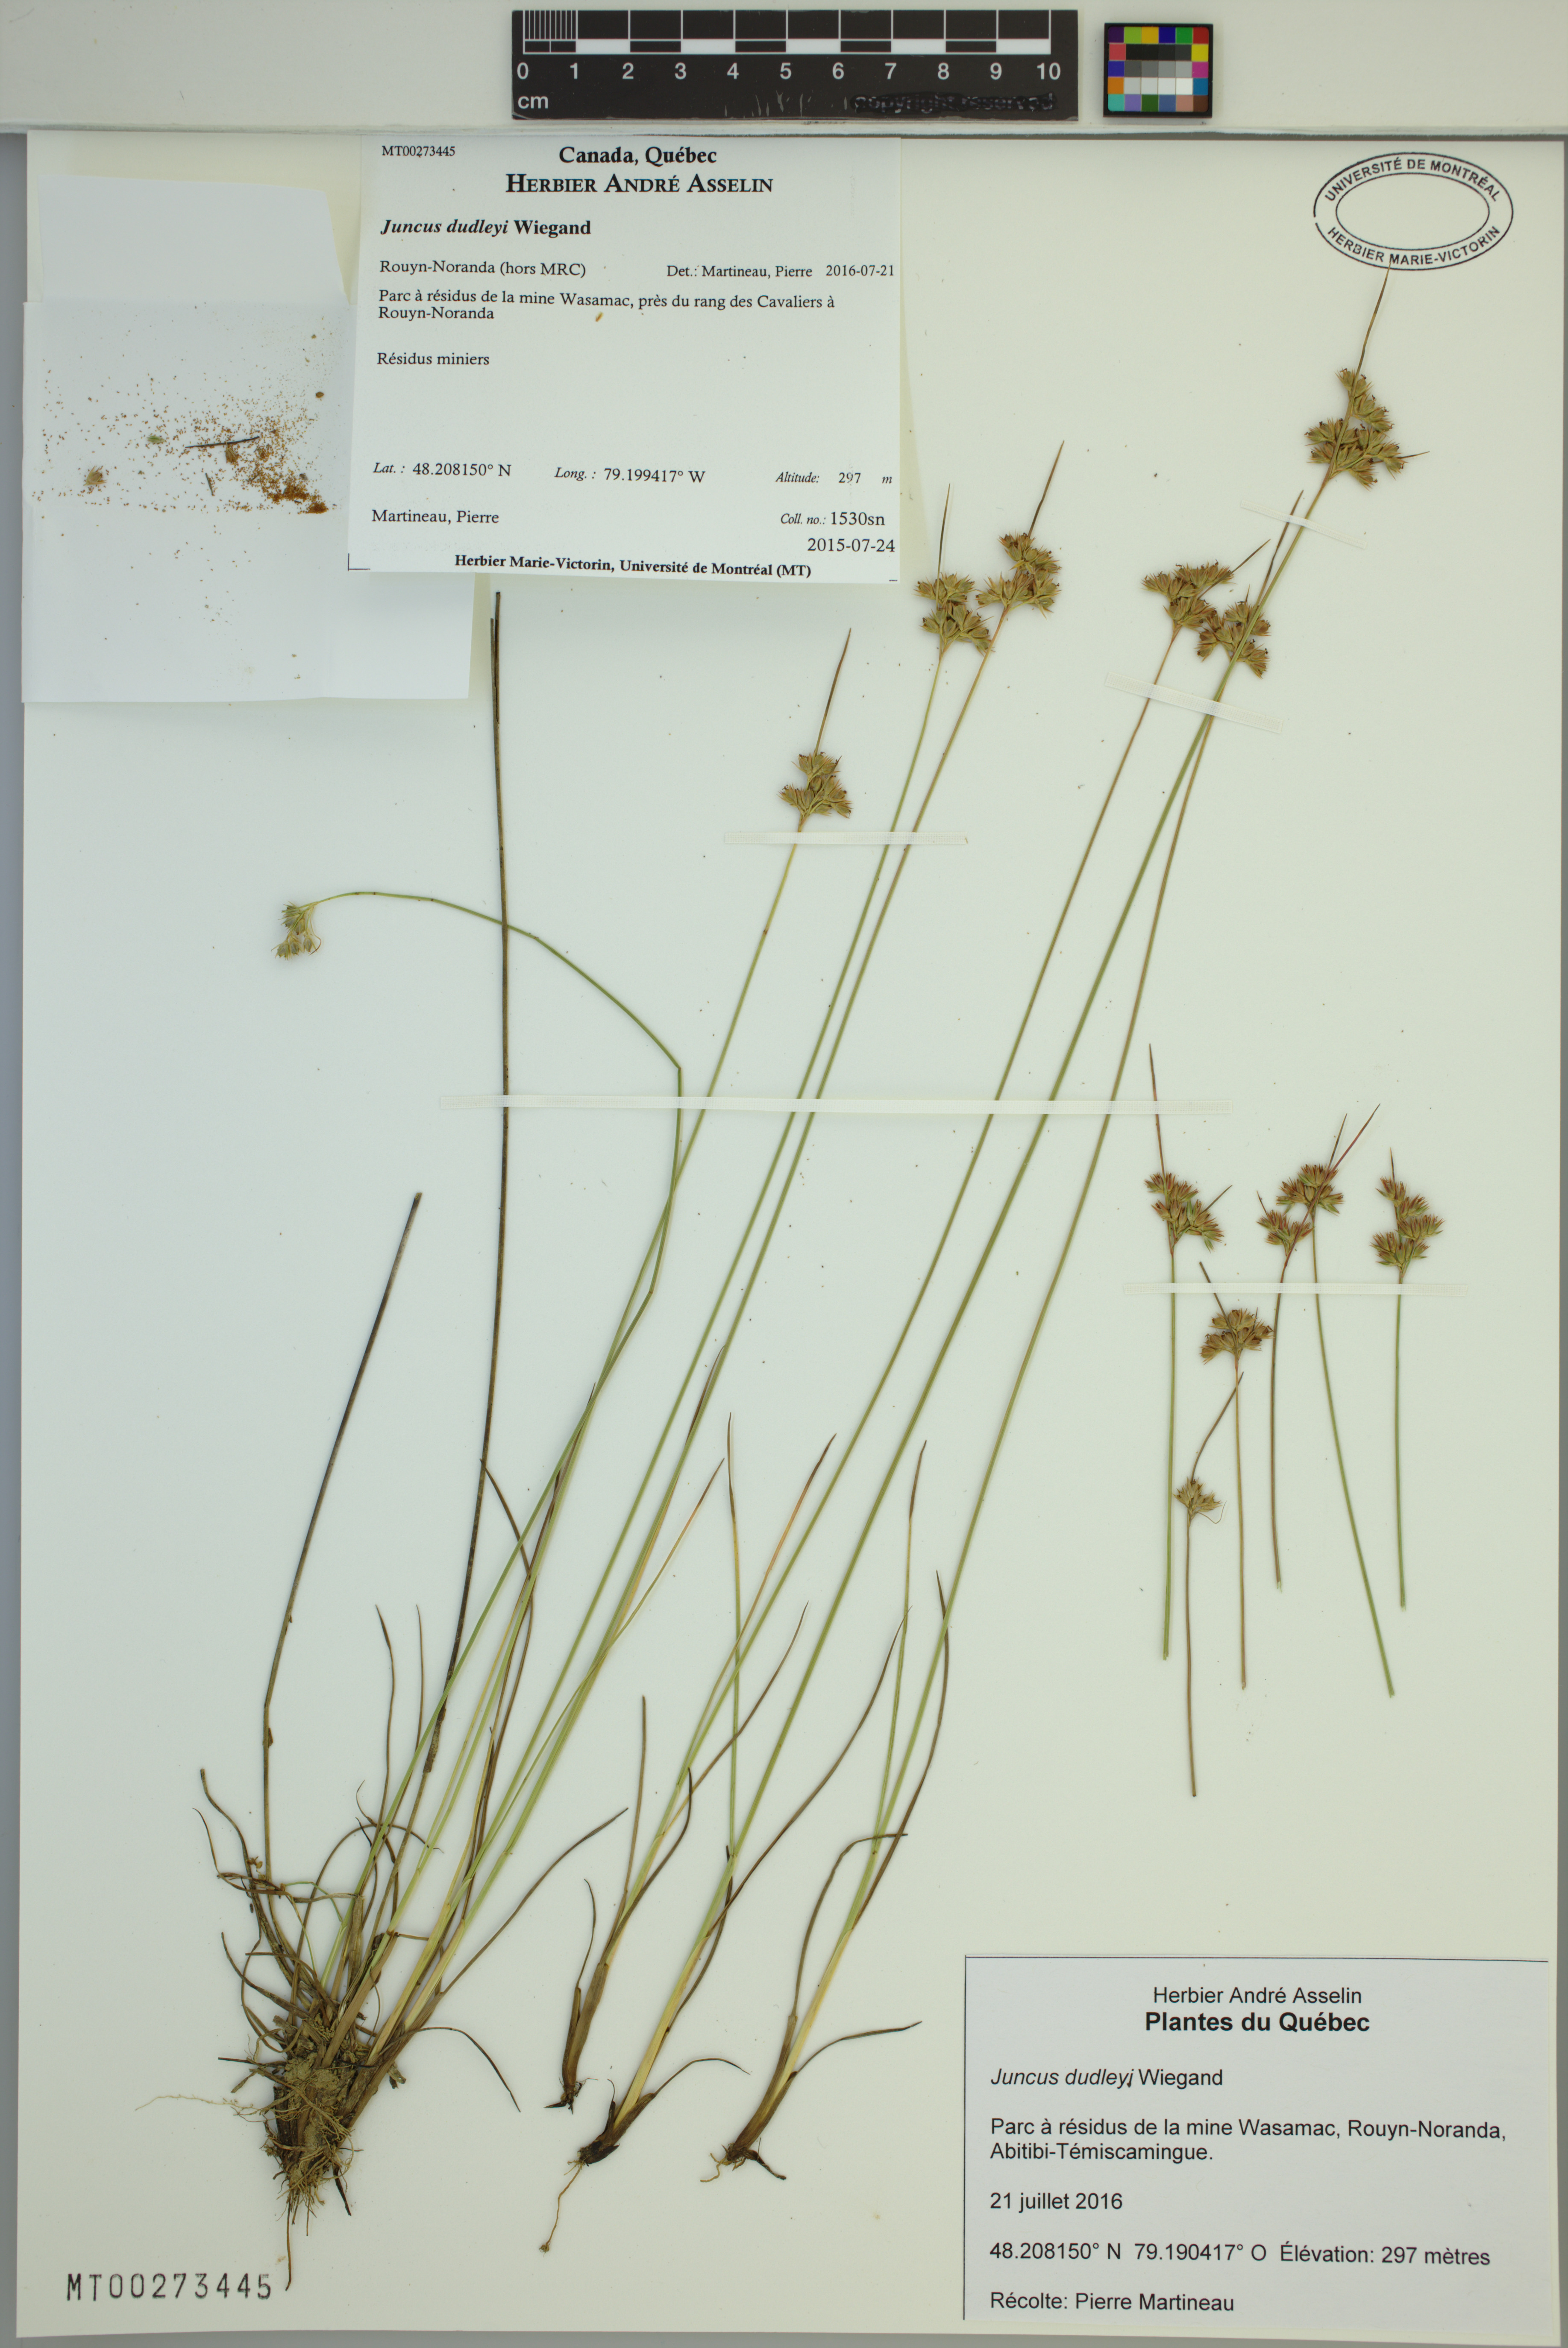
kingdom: Plantae
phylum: Tracheophyta
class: Liliopsida
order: Poales
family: Juncaceae
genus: Juncus
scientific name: Juncus dudleyi
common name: Dudley's rush
